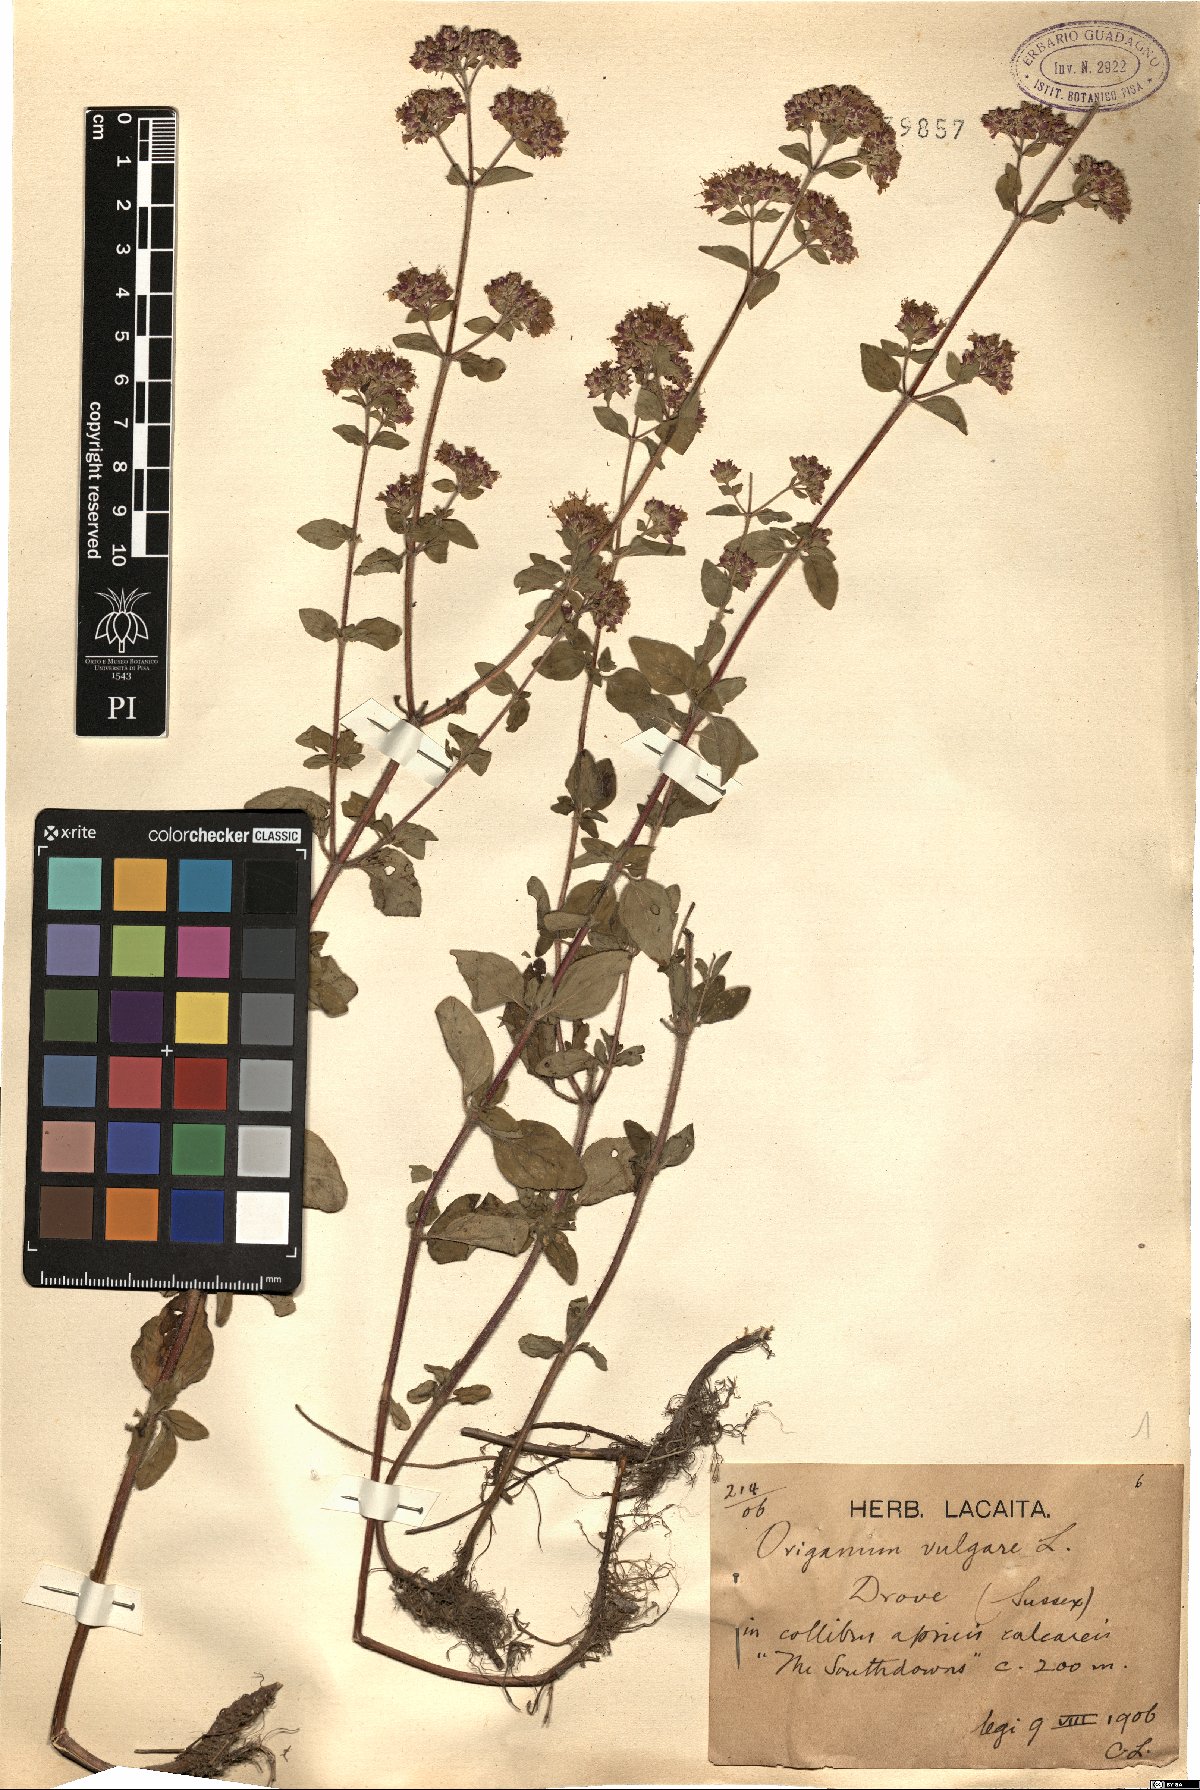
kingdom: Plantae
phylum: Tracheophyta
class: Magnoliopsida
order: Lamiales
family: Lamiaceae
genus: Origanum
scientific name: Origanum vulgare
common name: Wild marjoram
